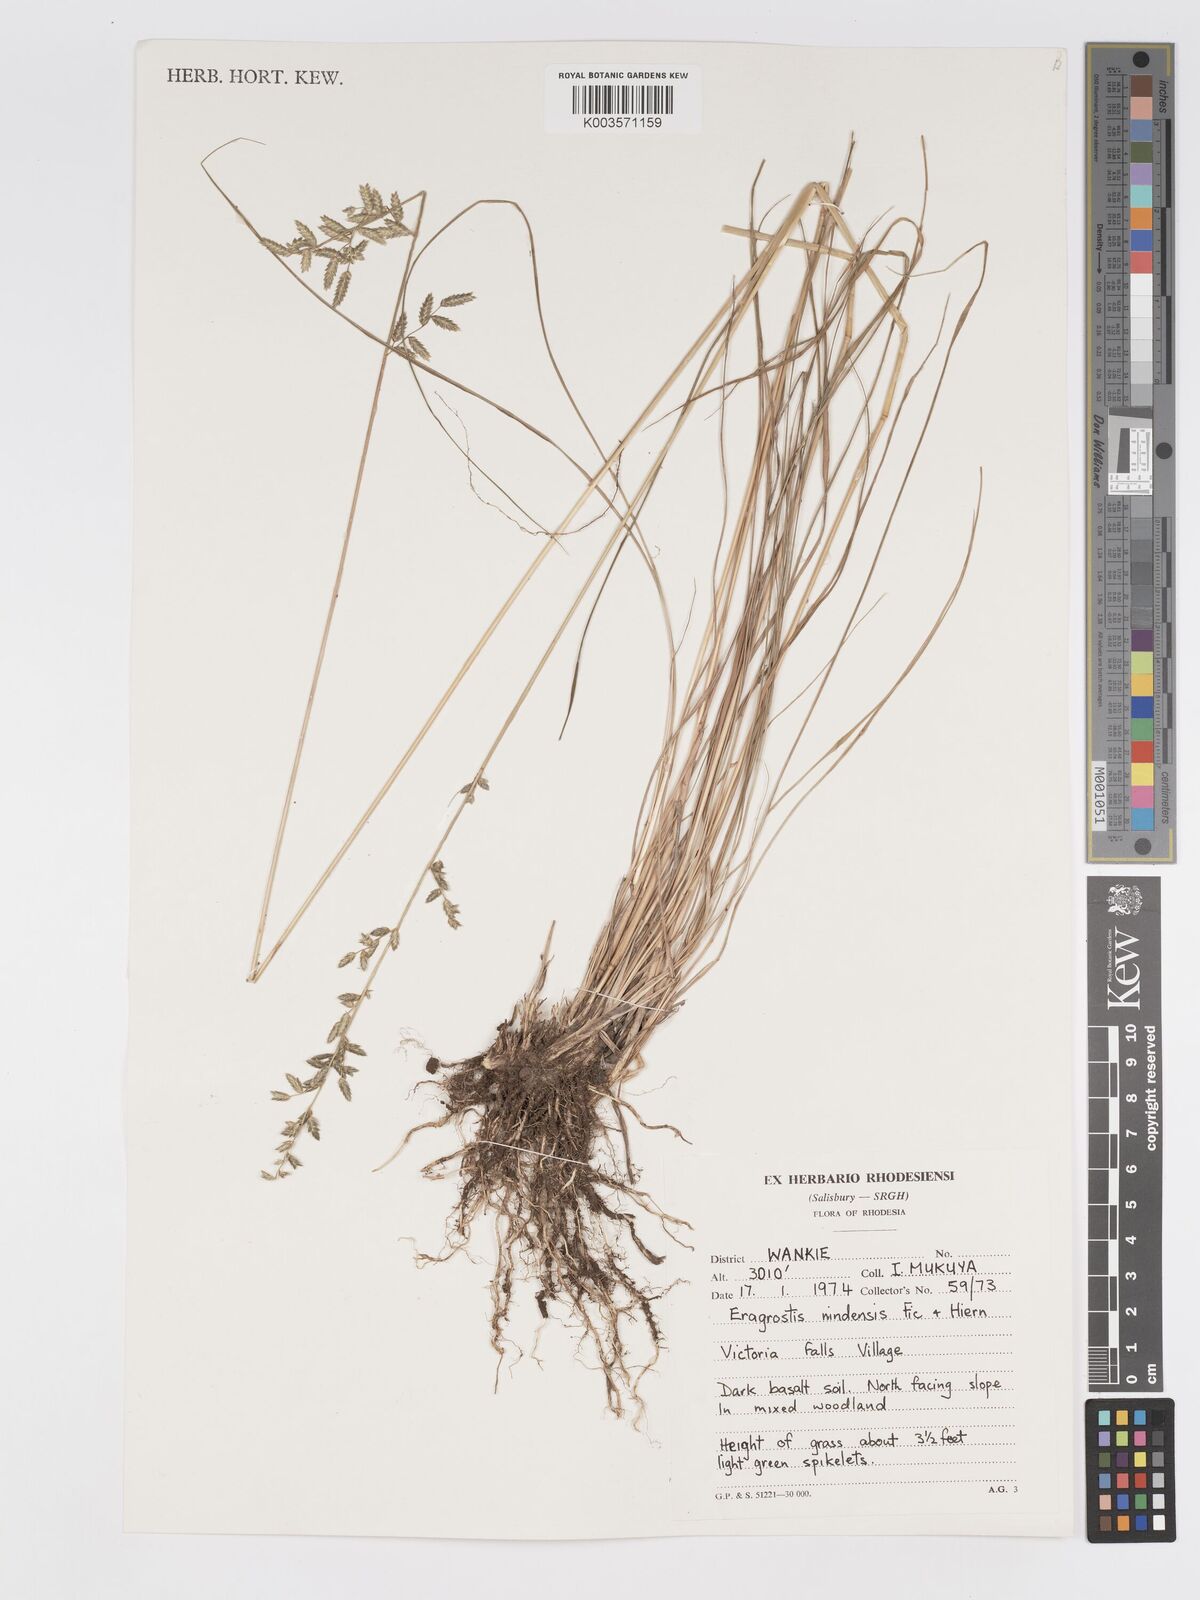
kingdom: Plantae
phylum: Tracheophyta
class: Liliopsida
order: Poales
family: Poaceae
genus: Eragrostis
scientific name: Eragrostis nindensis
